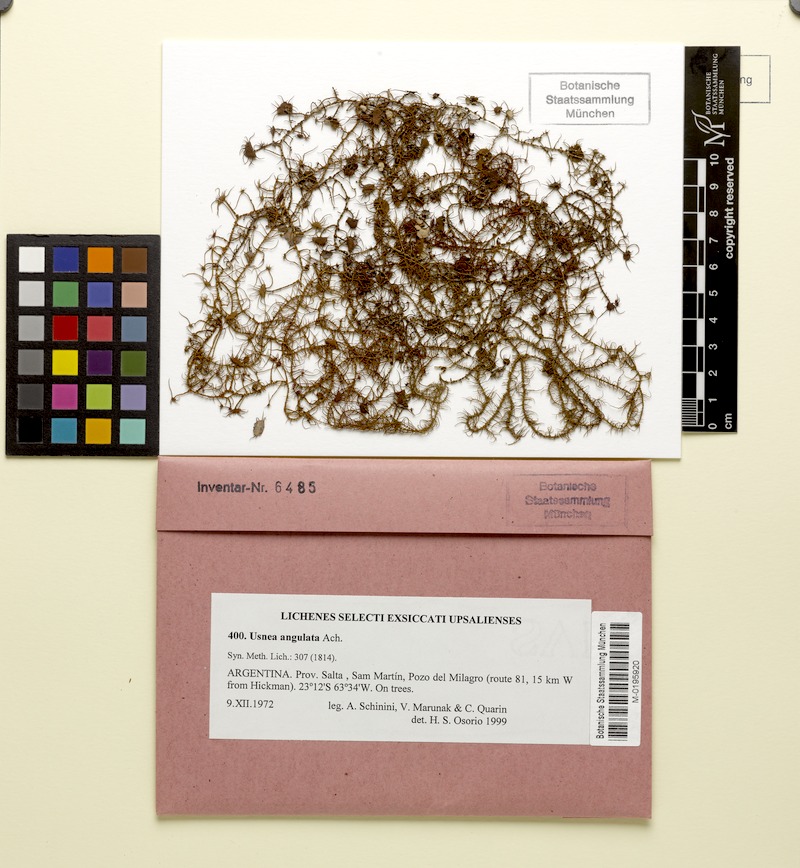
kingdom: Fungi
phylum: Ascomycota
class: Lecanoromycetes
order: Lecanorales
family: Parmeliaceae
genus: Usnea
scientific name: Usnea angulata
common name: Old-man’s beard lichen
